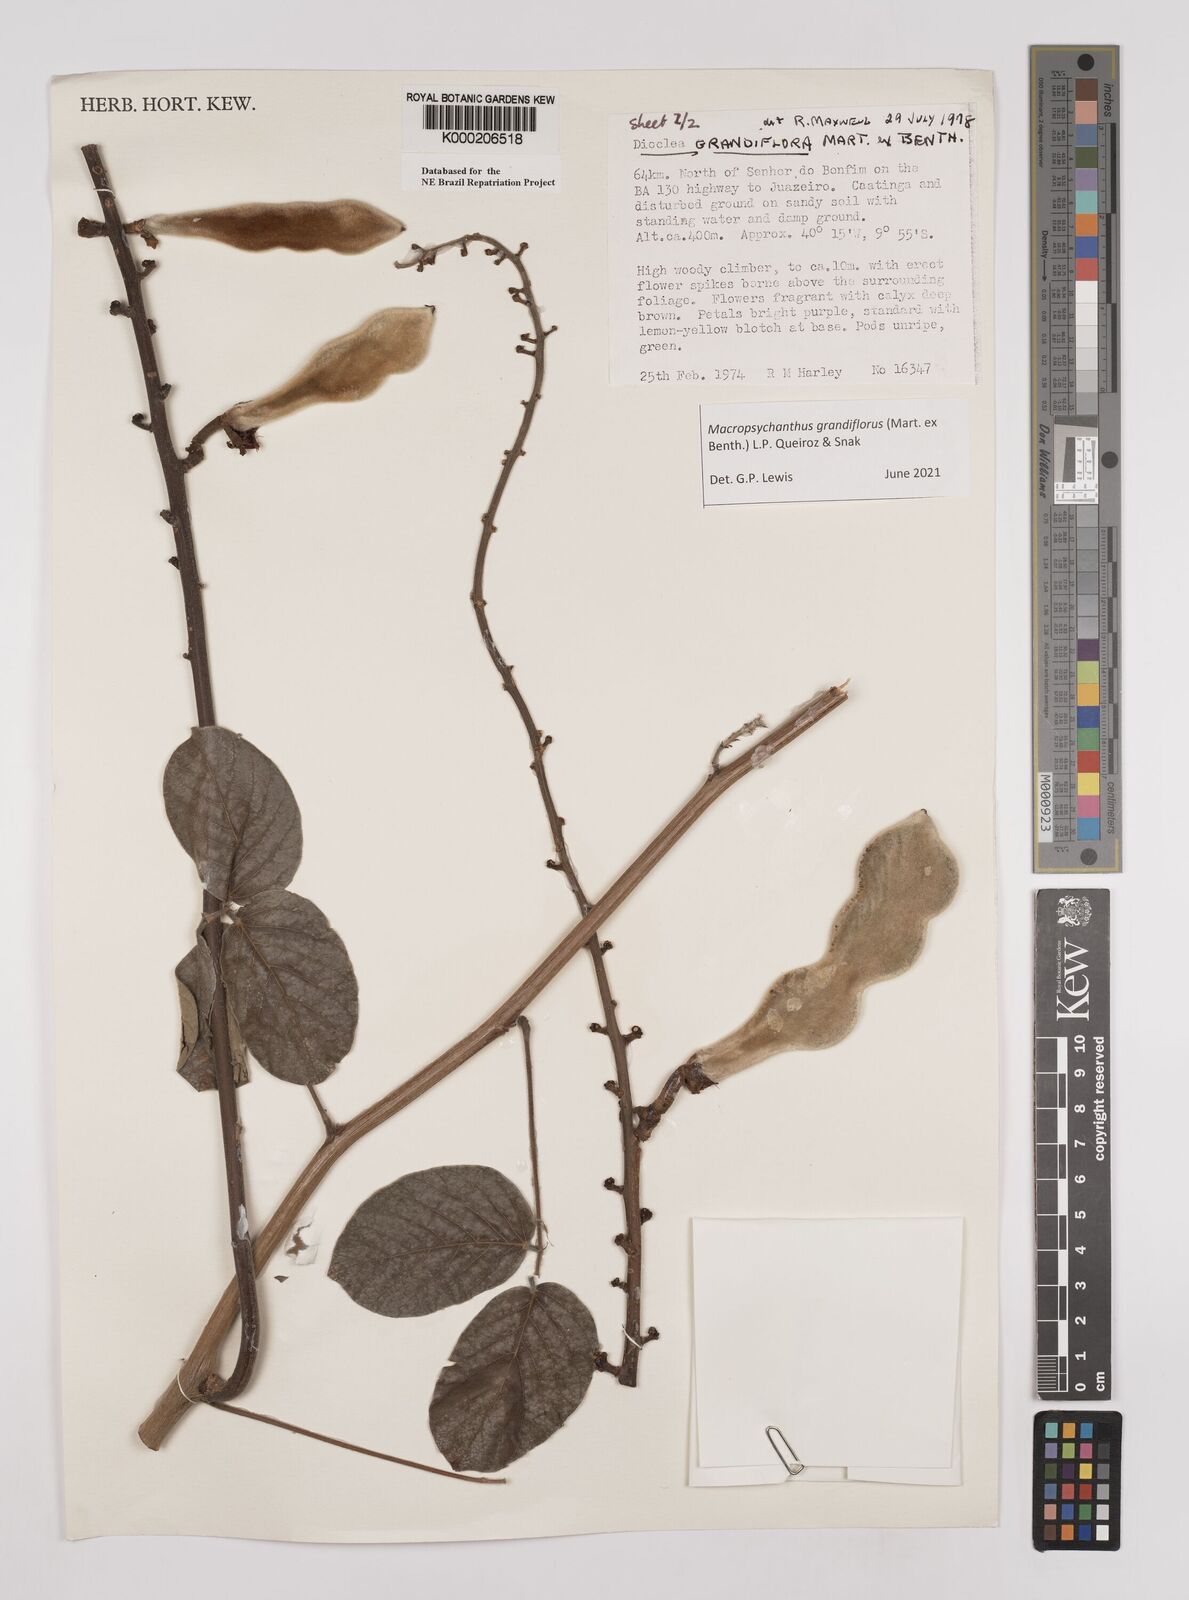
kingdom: Plantae
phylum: Tracheophyta
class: Magnoliopsida
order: Fabales
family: Fabaceae
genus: Macropsychanthus
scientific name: Macropsychanthus grandiflorus
